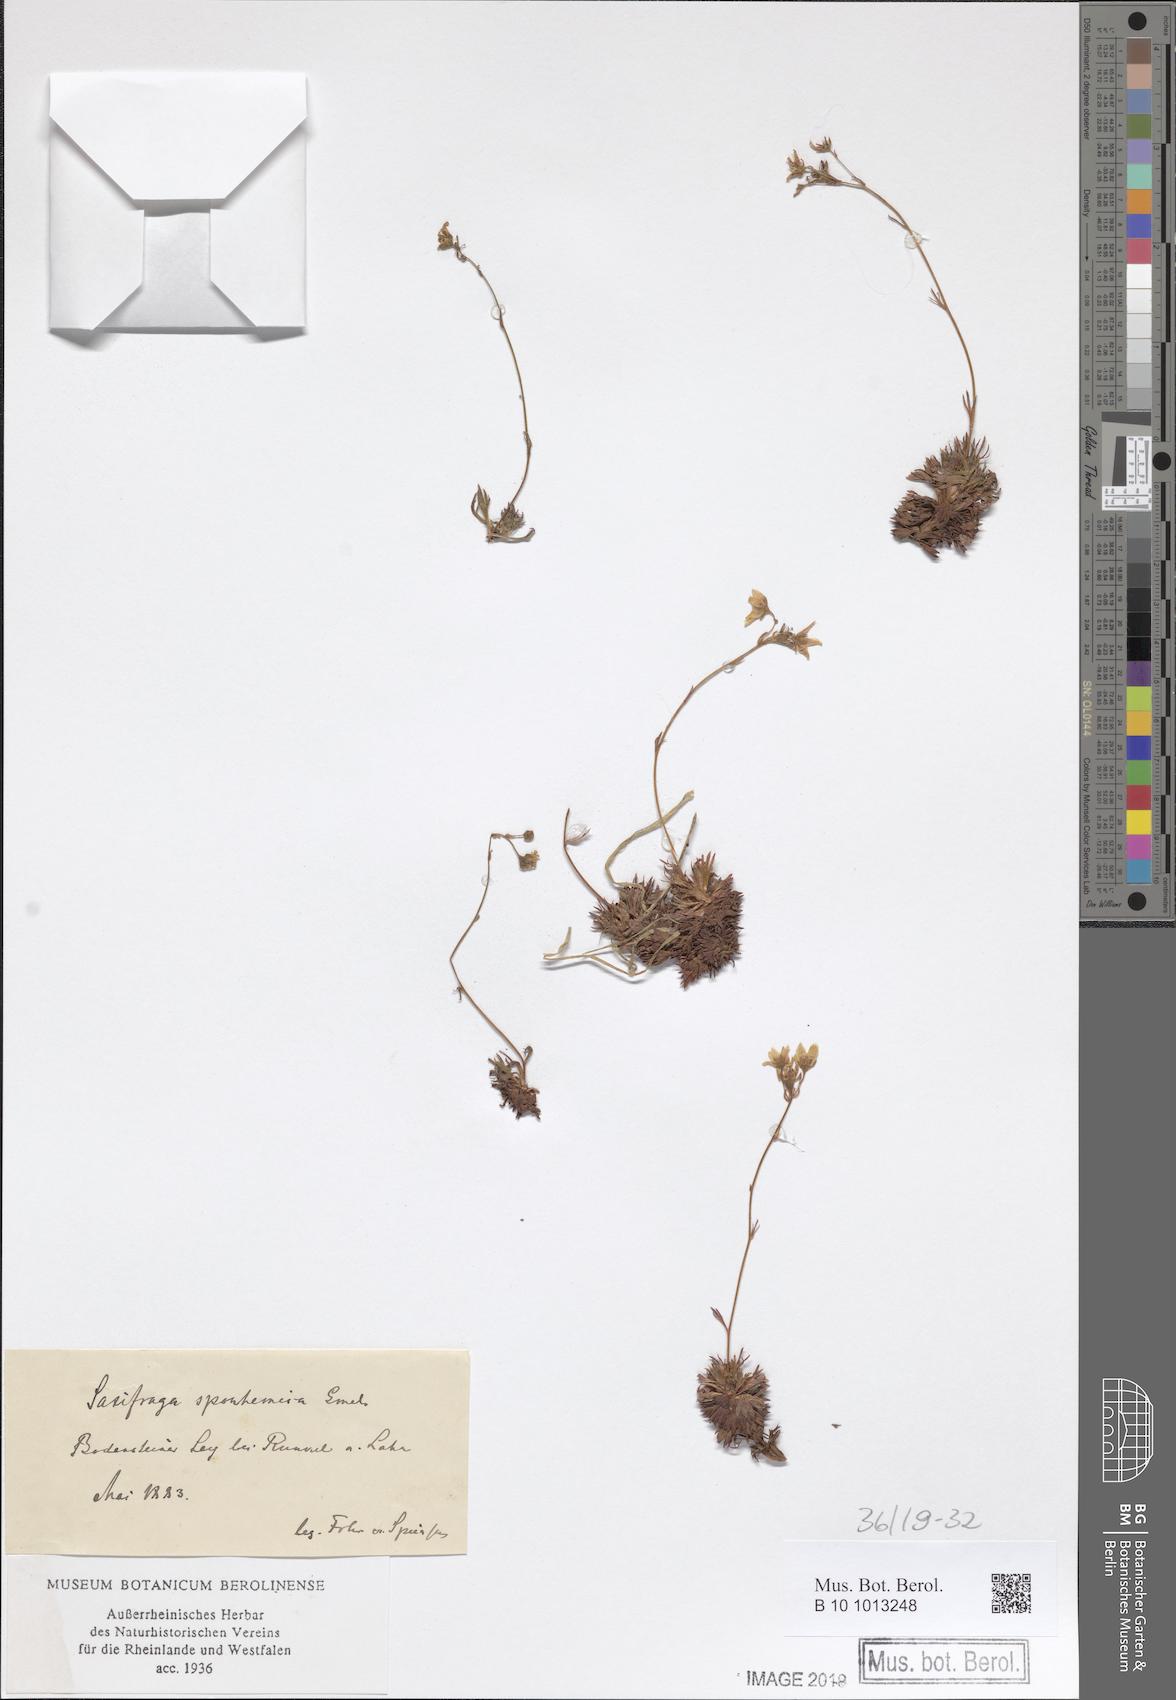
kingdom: Plantae
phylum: Tracheophyta
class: Magnoliopsida
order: Saxifragales
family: Saxifragaceae
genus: Saxifraga
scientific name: Saxifraga rosacea
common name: Irish saxifrage
